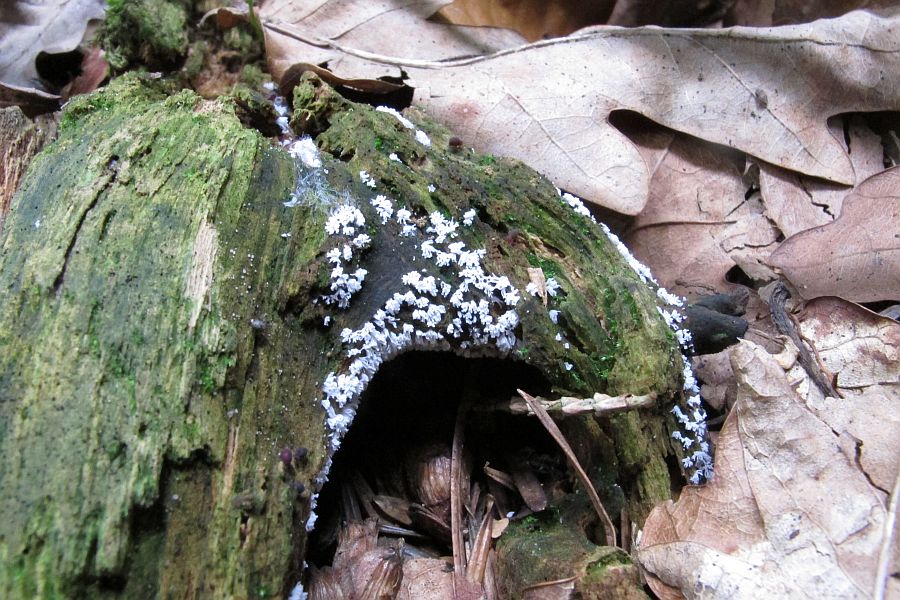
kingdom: Protozoa
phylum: Mycetozoa
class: Protosteliomycetes
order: Ceratiomyxales
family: Ceratiomyxaceae
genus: Ceratiomyxa
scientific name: Ceratiomyxa fruticulosa
